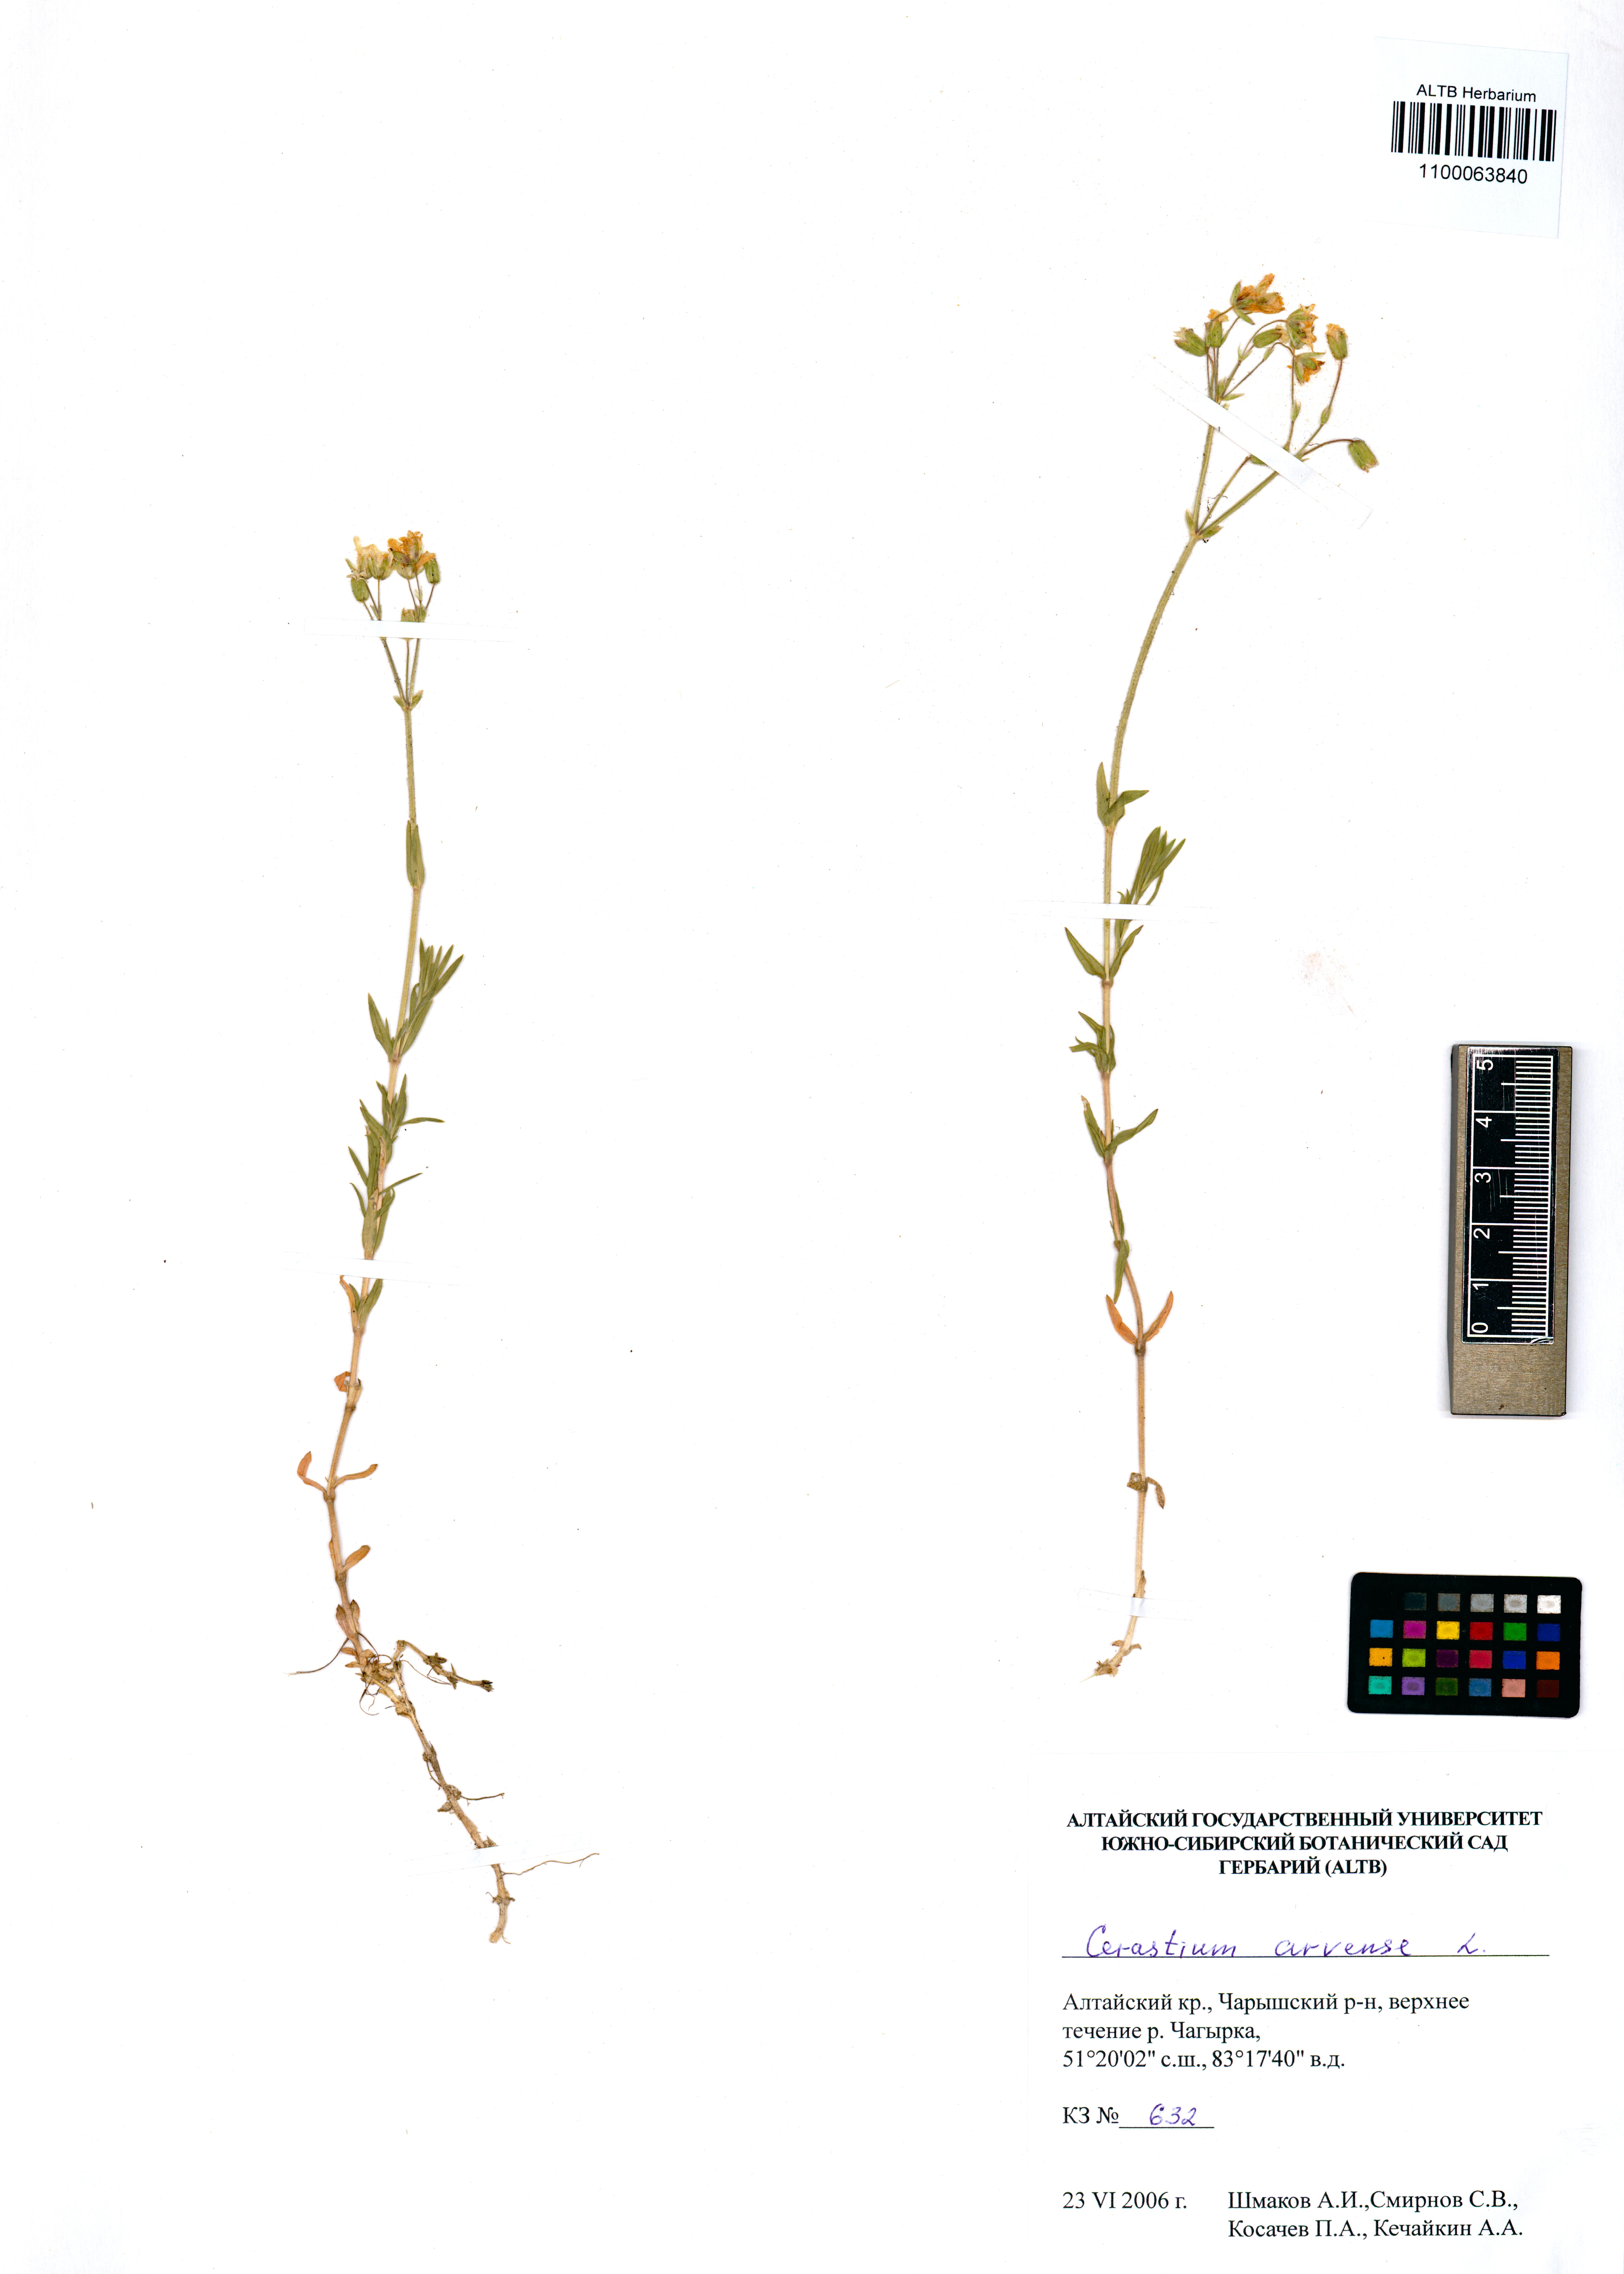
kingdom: Plantae
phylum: Tracheophyta
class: Magnoliopsida
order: Caryophyllales
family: Caryophyllaceae
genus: Cerastium
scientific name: Cerastium arvense
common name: Field mouse-ear
